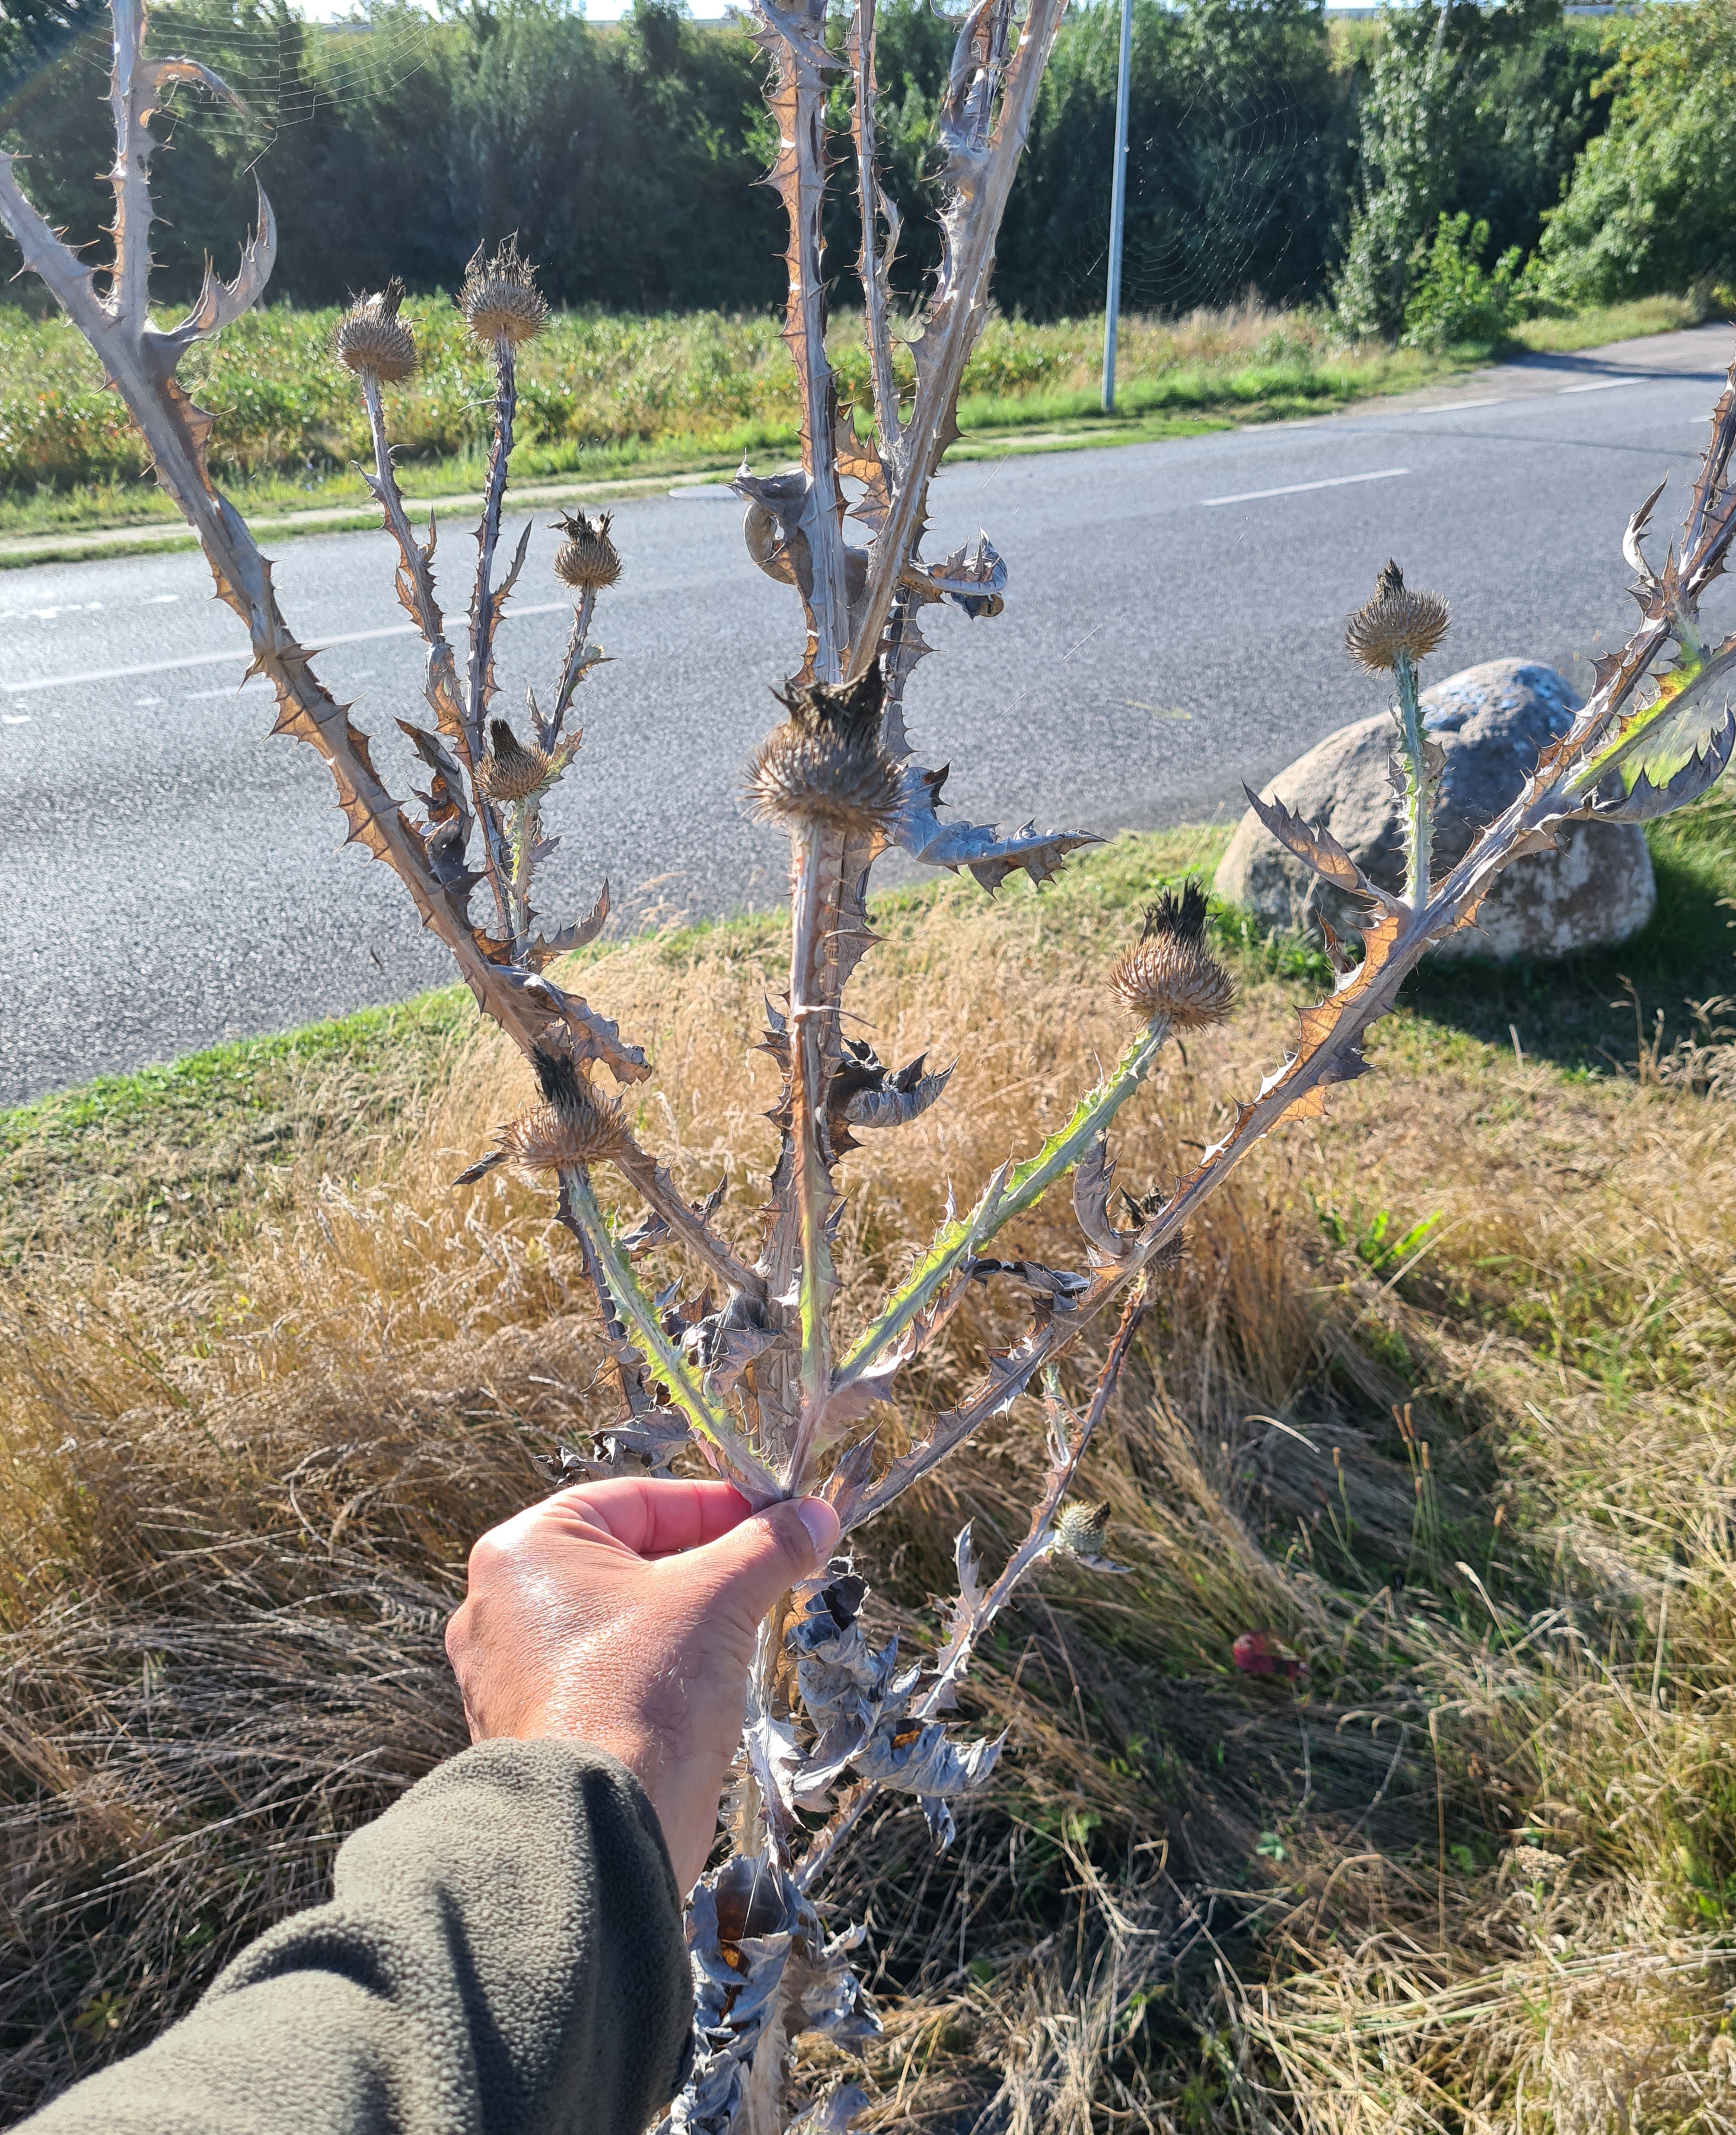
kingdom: Plantae
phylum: Tracheophyta
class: Magnoliopsida
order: Asterales
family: Asteraceae
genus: Onopordum
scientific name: Onopordum acanthium
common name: Æselfoder
